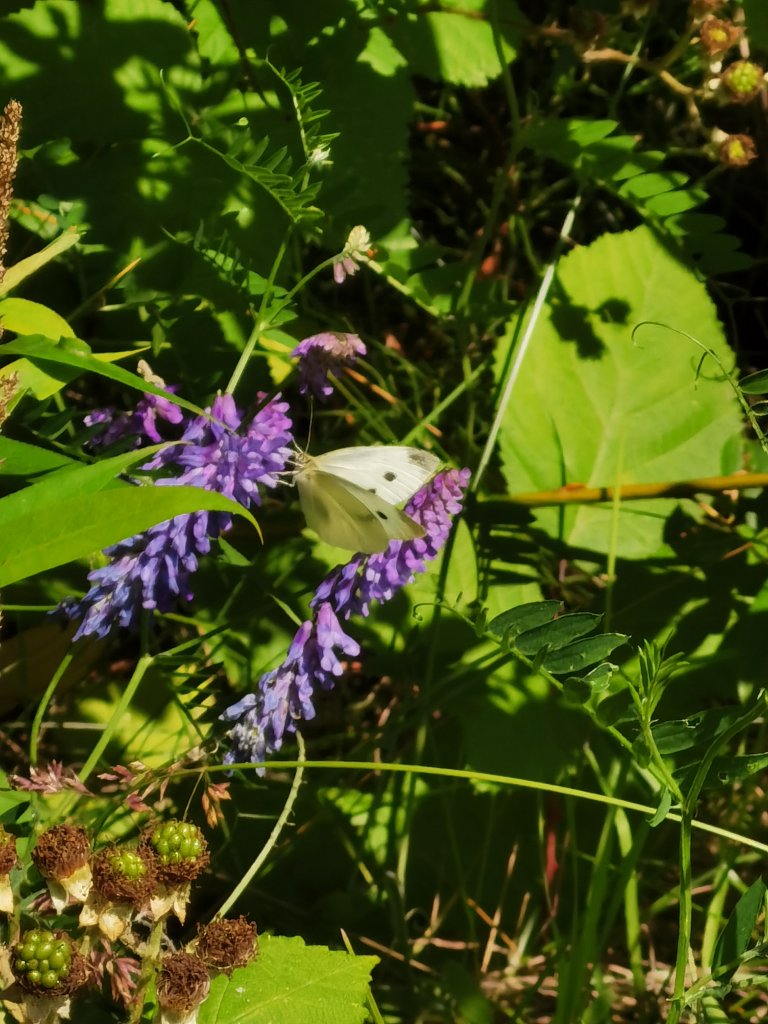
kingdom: Animalia
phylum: Arthropoda
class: Insecta
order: Lepidoptera
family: Pieridae
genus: Pieris
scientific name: Pieris rapae
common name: Cabbage White
